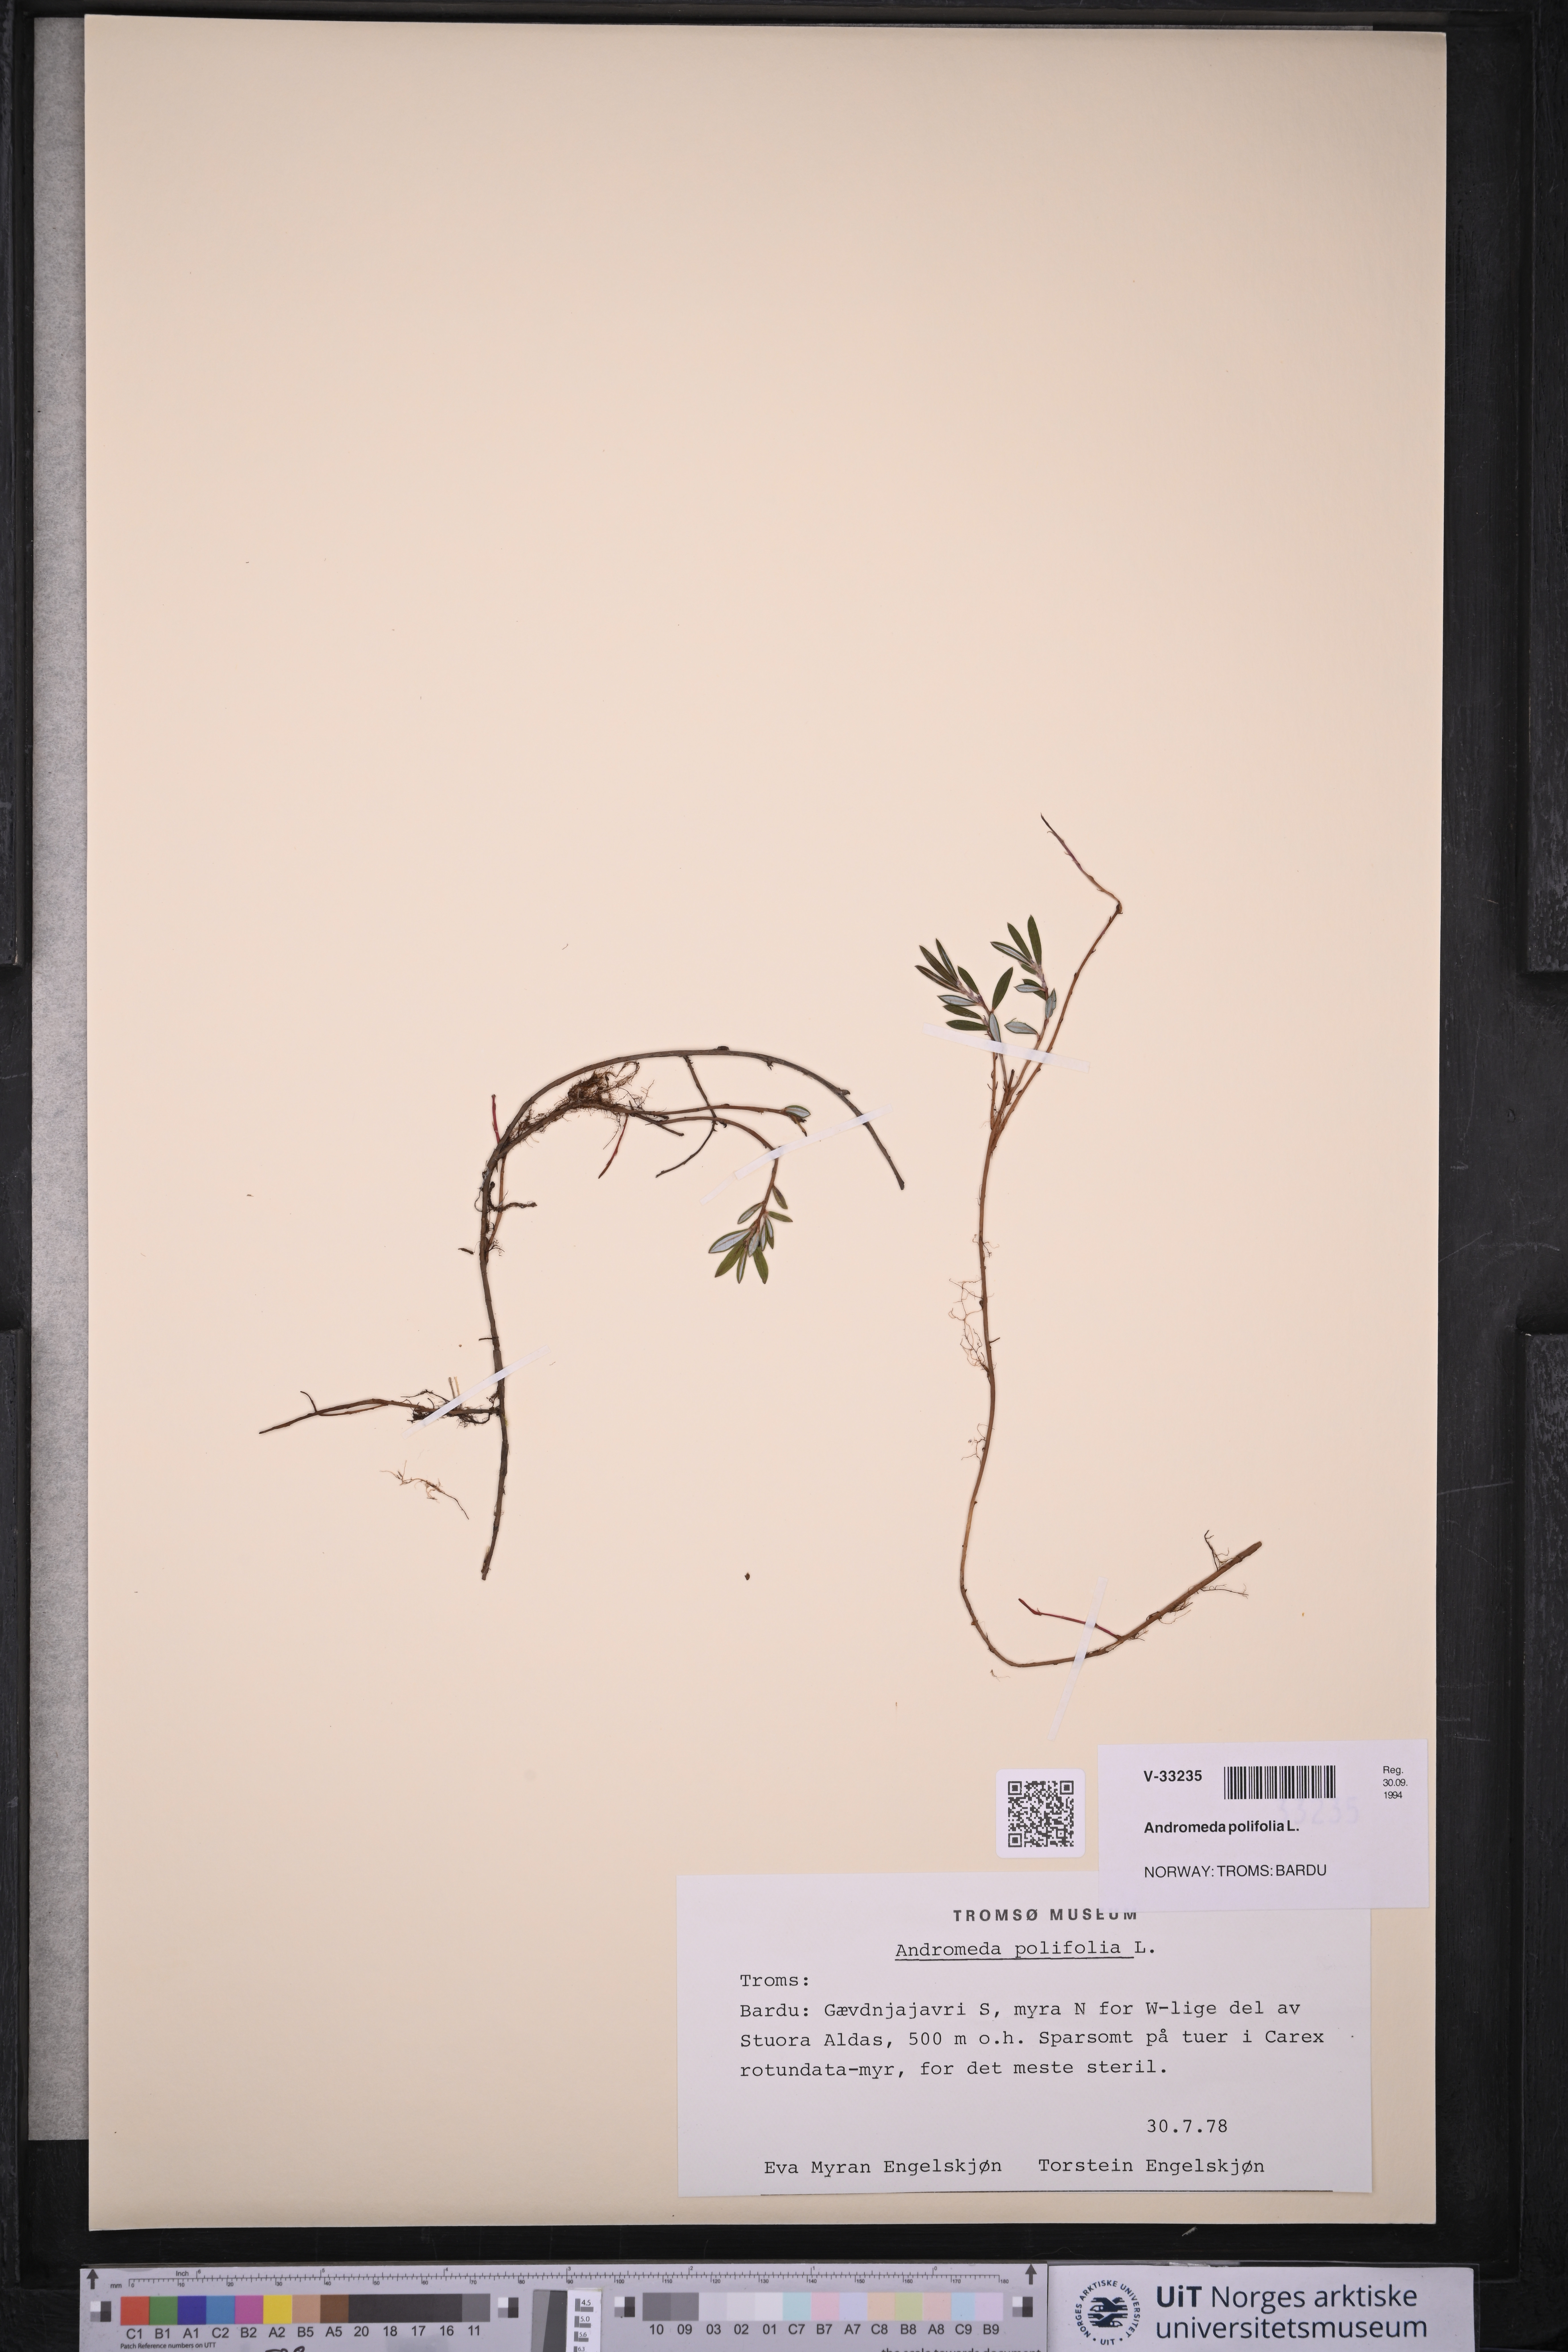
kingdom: Plantae
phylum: Tracheophyta
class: Magnoliopsida
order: Ericales
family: Ericaceae
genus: Andromeda
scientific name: Andromeda polifolia
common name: Bog-rosemary
